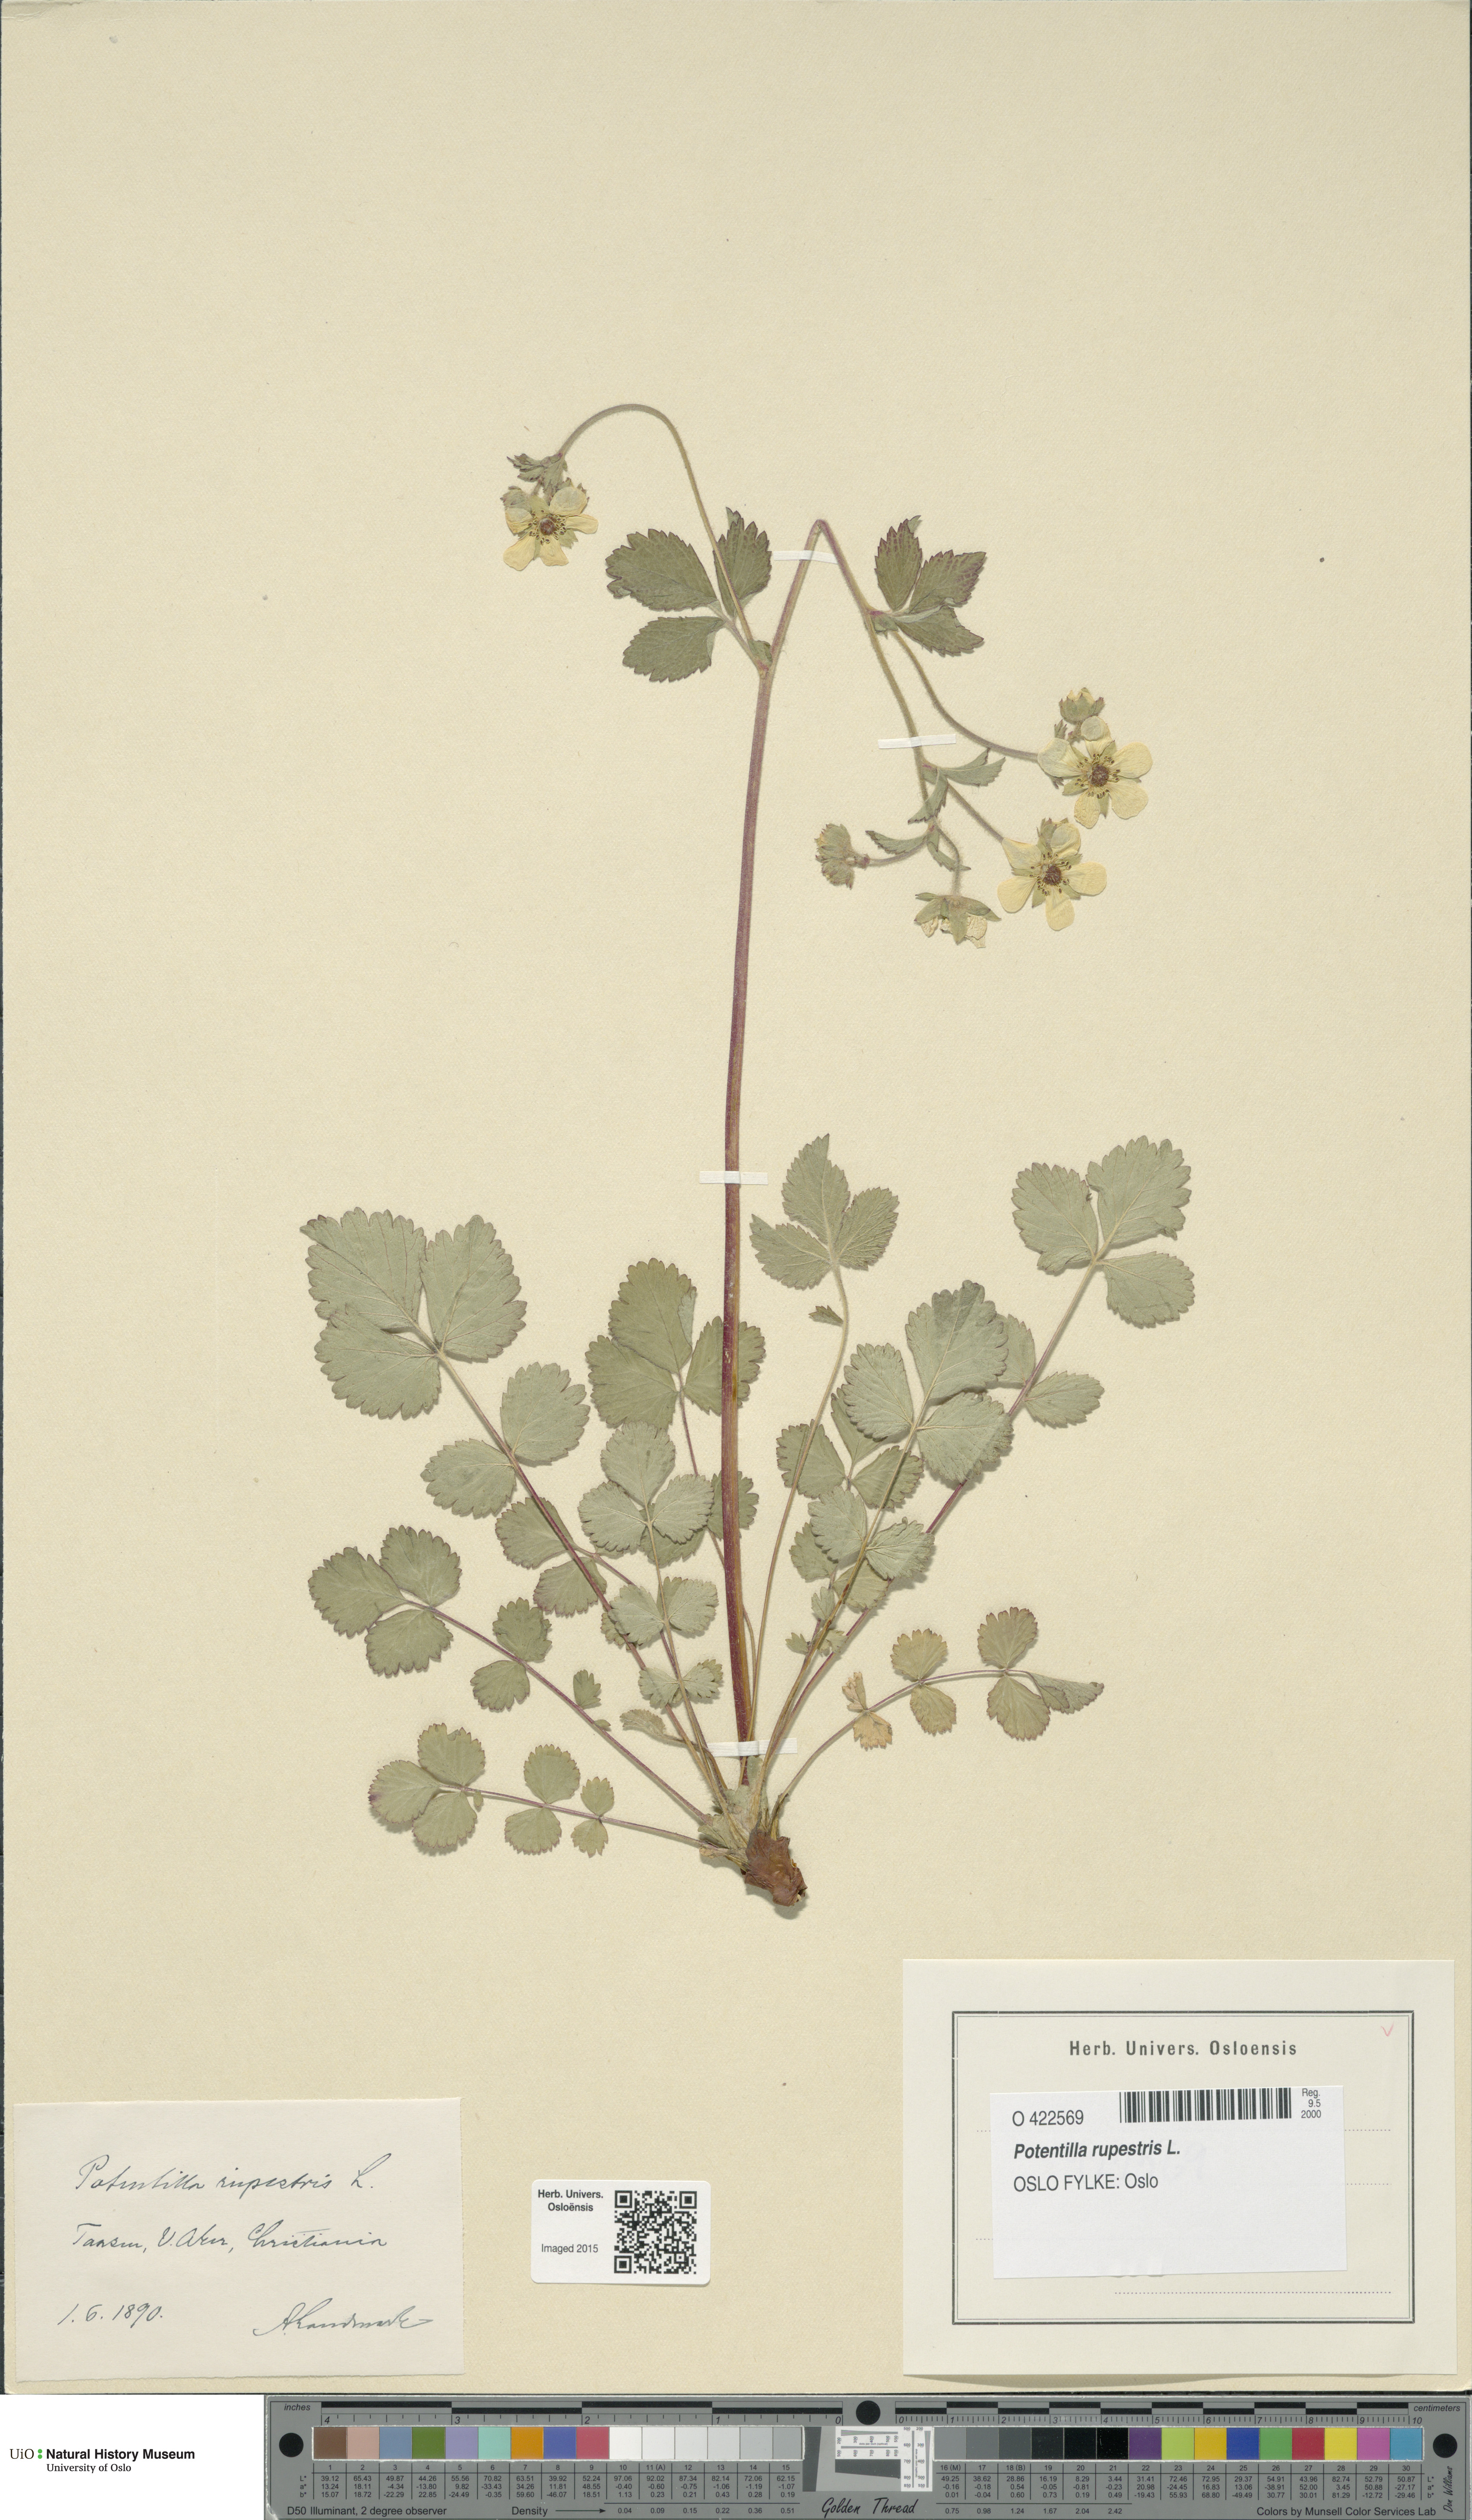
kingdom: Plantae
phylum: Tracheophyta
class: Magnoliopsida
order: Rosales
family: Rosaceae
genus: Drymocallis
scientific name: Drymocallis rupestris
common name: Rock cinquefoil
